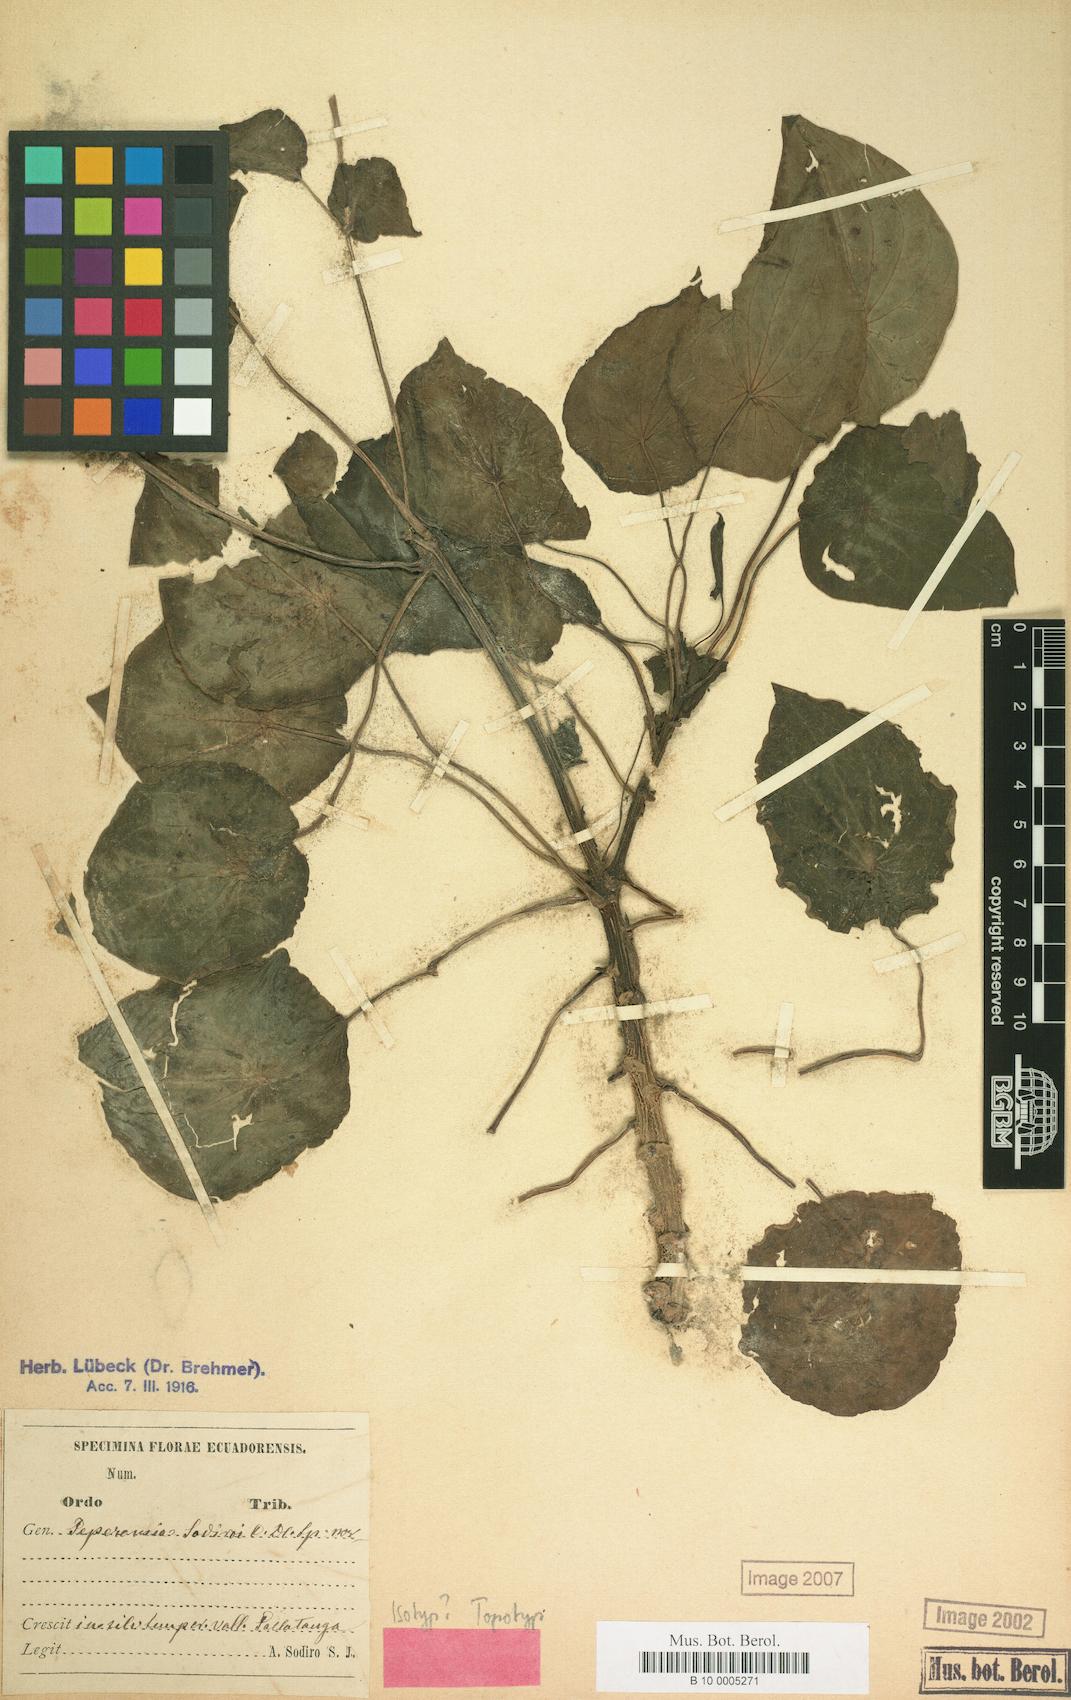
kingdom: Plantae
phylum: Tracheophyta
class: Magnoliopsida
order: Piperales
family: Piperaceae
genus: Peperomia
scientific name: Peperomia sodiroi
